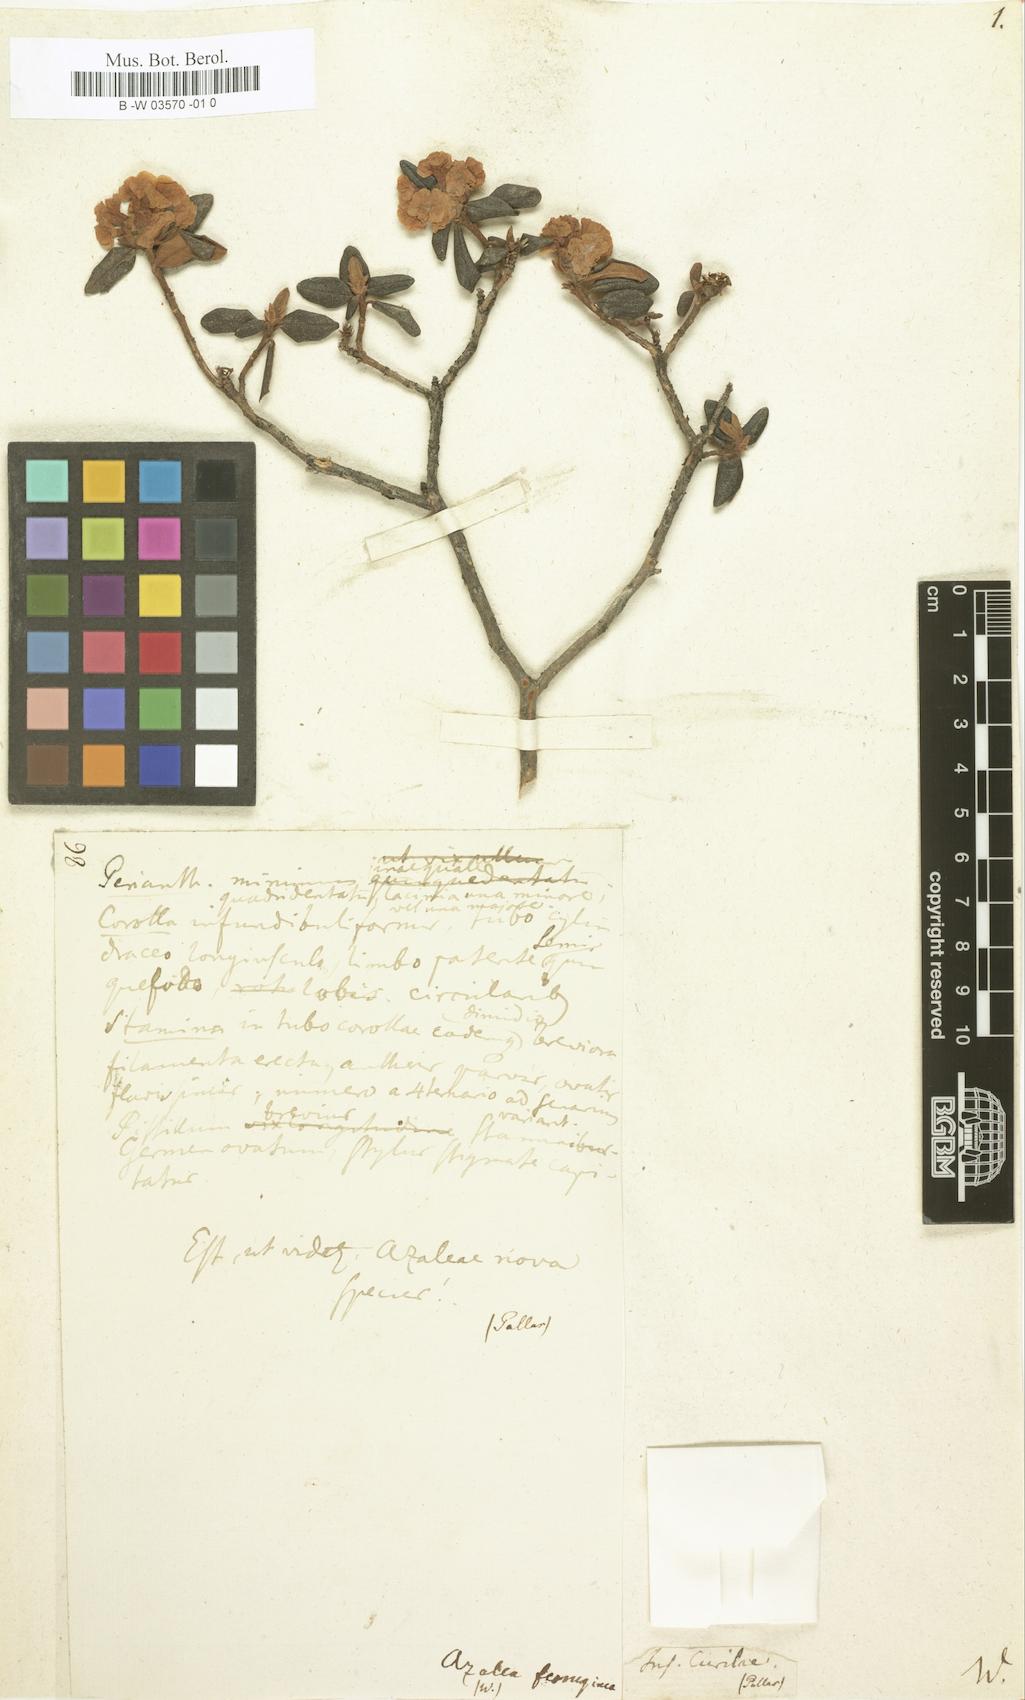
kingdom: Plantae
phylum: Tracheophyta
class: Magnoliopsida
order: Ericales
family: Ericaceae
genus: Rhododendron
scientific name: Rhododendron ferrugineum
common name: Alpenrose
